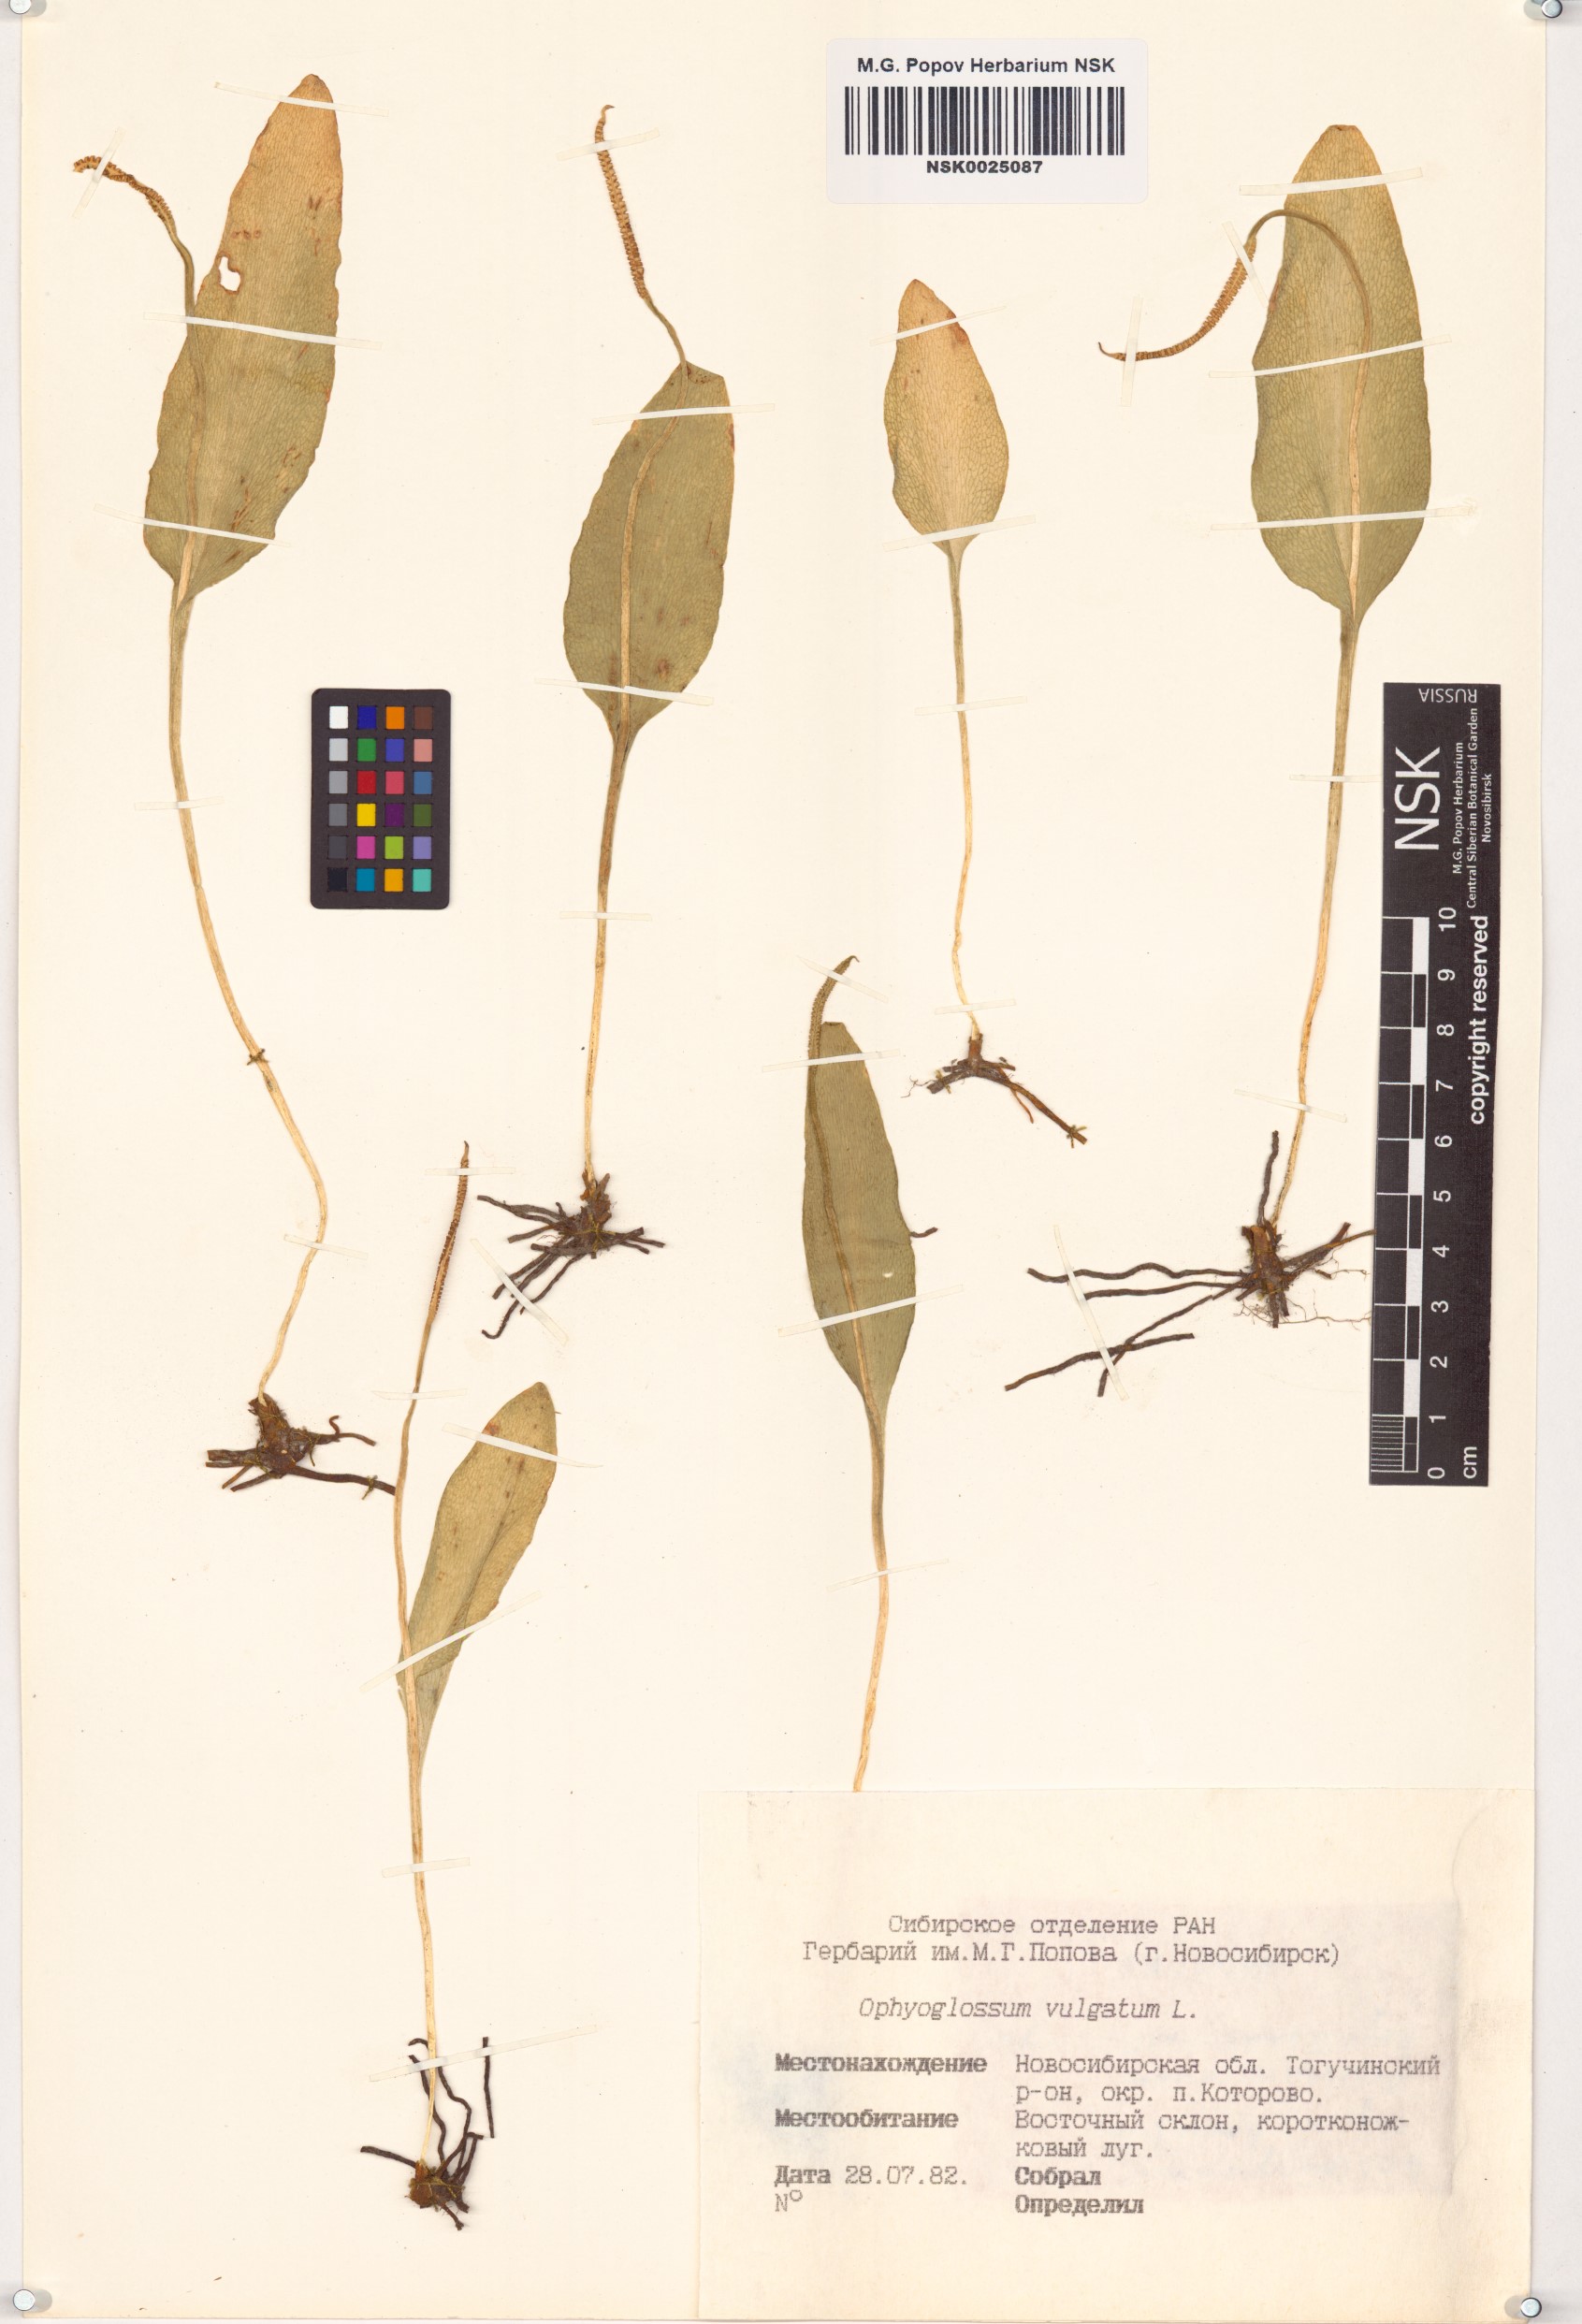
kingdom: Plantae
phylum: Tracheophyta
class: Polypodiopsida
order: Ophioglossales
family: Ophioglossaceae
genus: Ophioglossum
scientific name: Ophioglossum vulgatum
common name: Adder's-tongue
